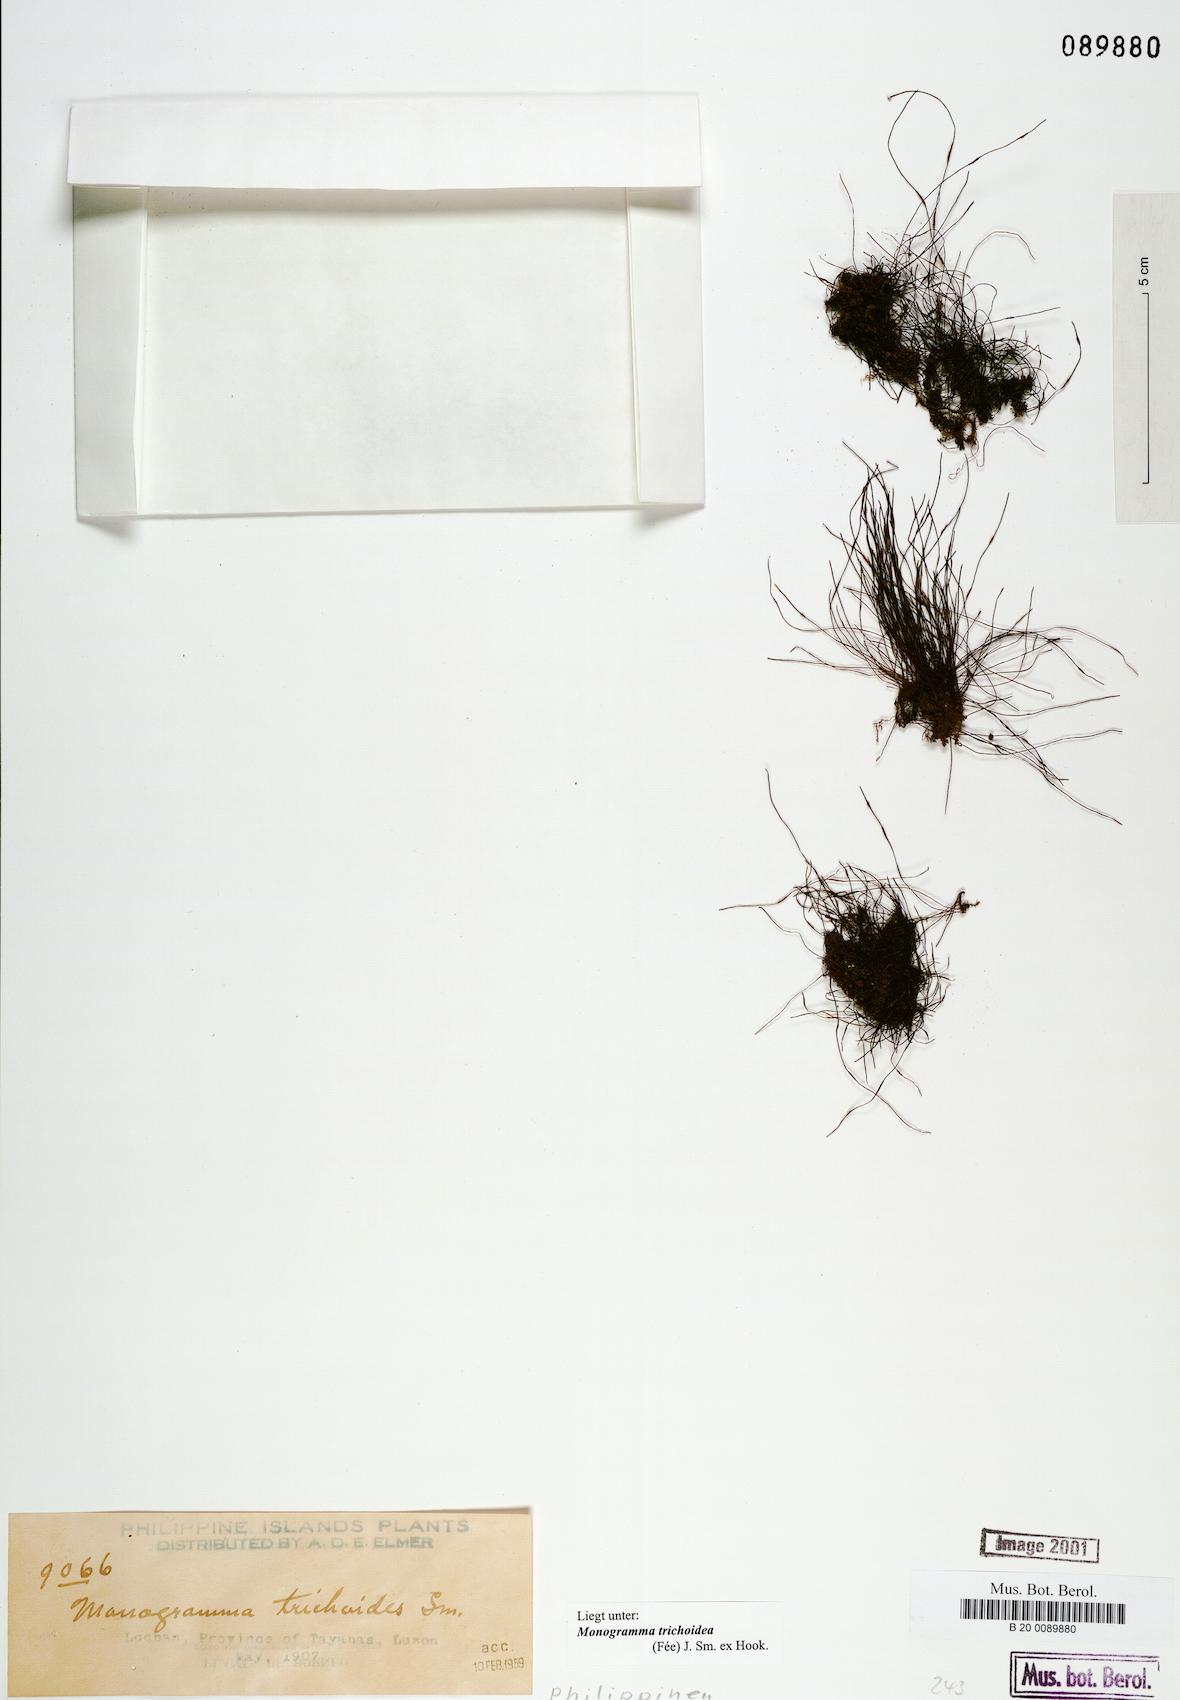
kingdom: Plantae
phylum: Tracheophyta
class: Polypodiopsida
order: Polypodiales
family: Pteridaceae
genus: Vaginularia
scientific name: Vaginularia trichoidea
